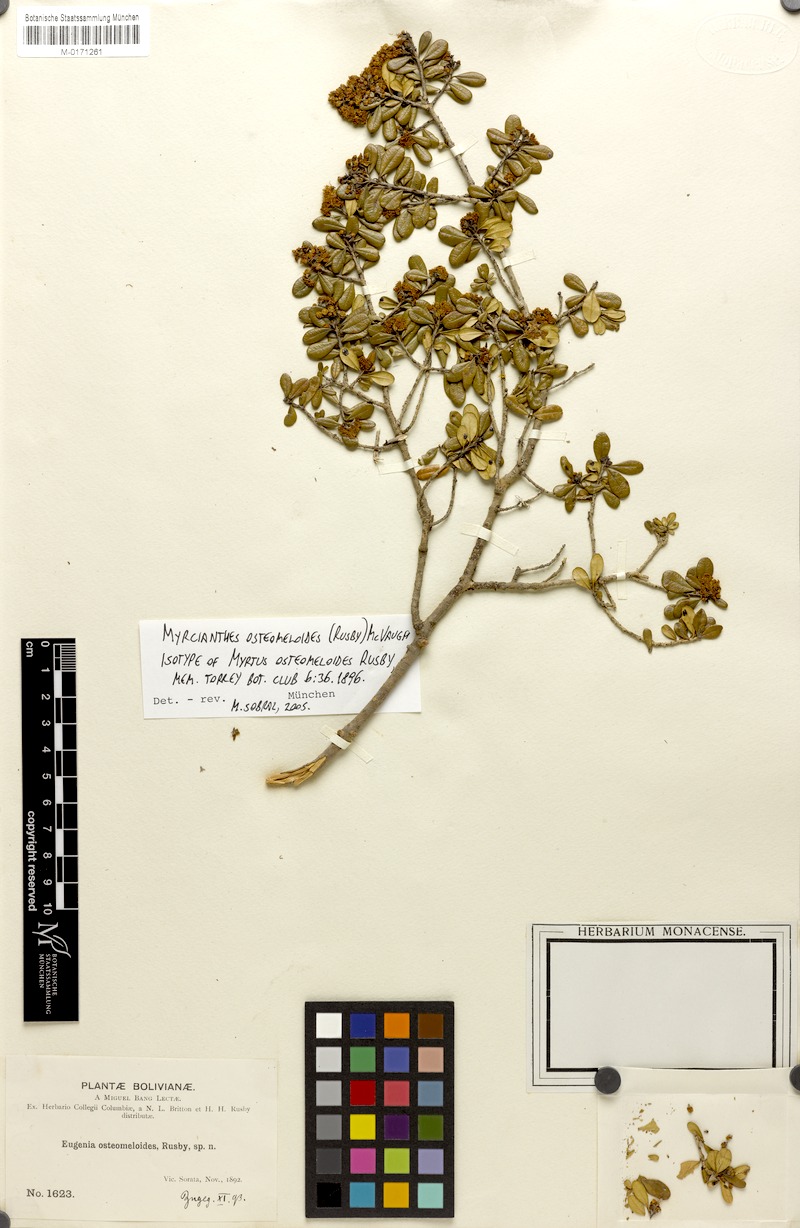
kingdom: Plantae
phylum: Tracheophyta
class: Magnoliopsida
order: Myrtales
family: Myrtaceae
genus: Myrcianthes
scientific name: Myrcianthes osteomeloides
